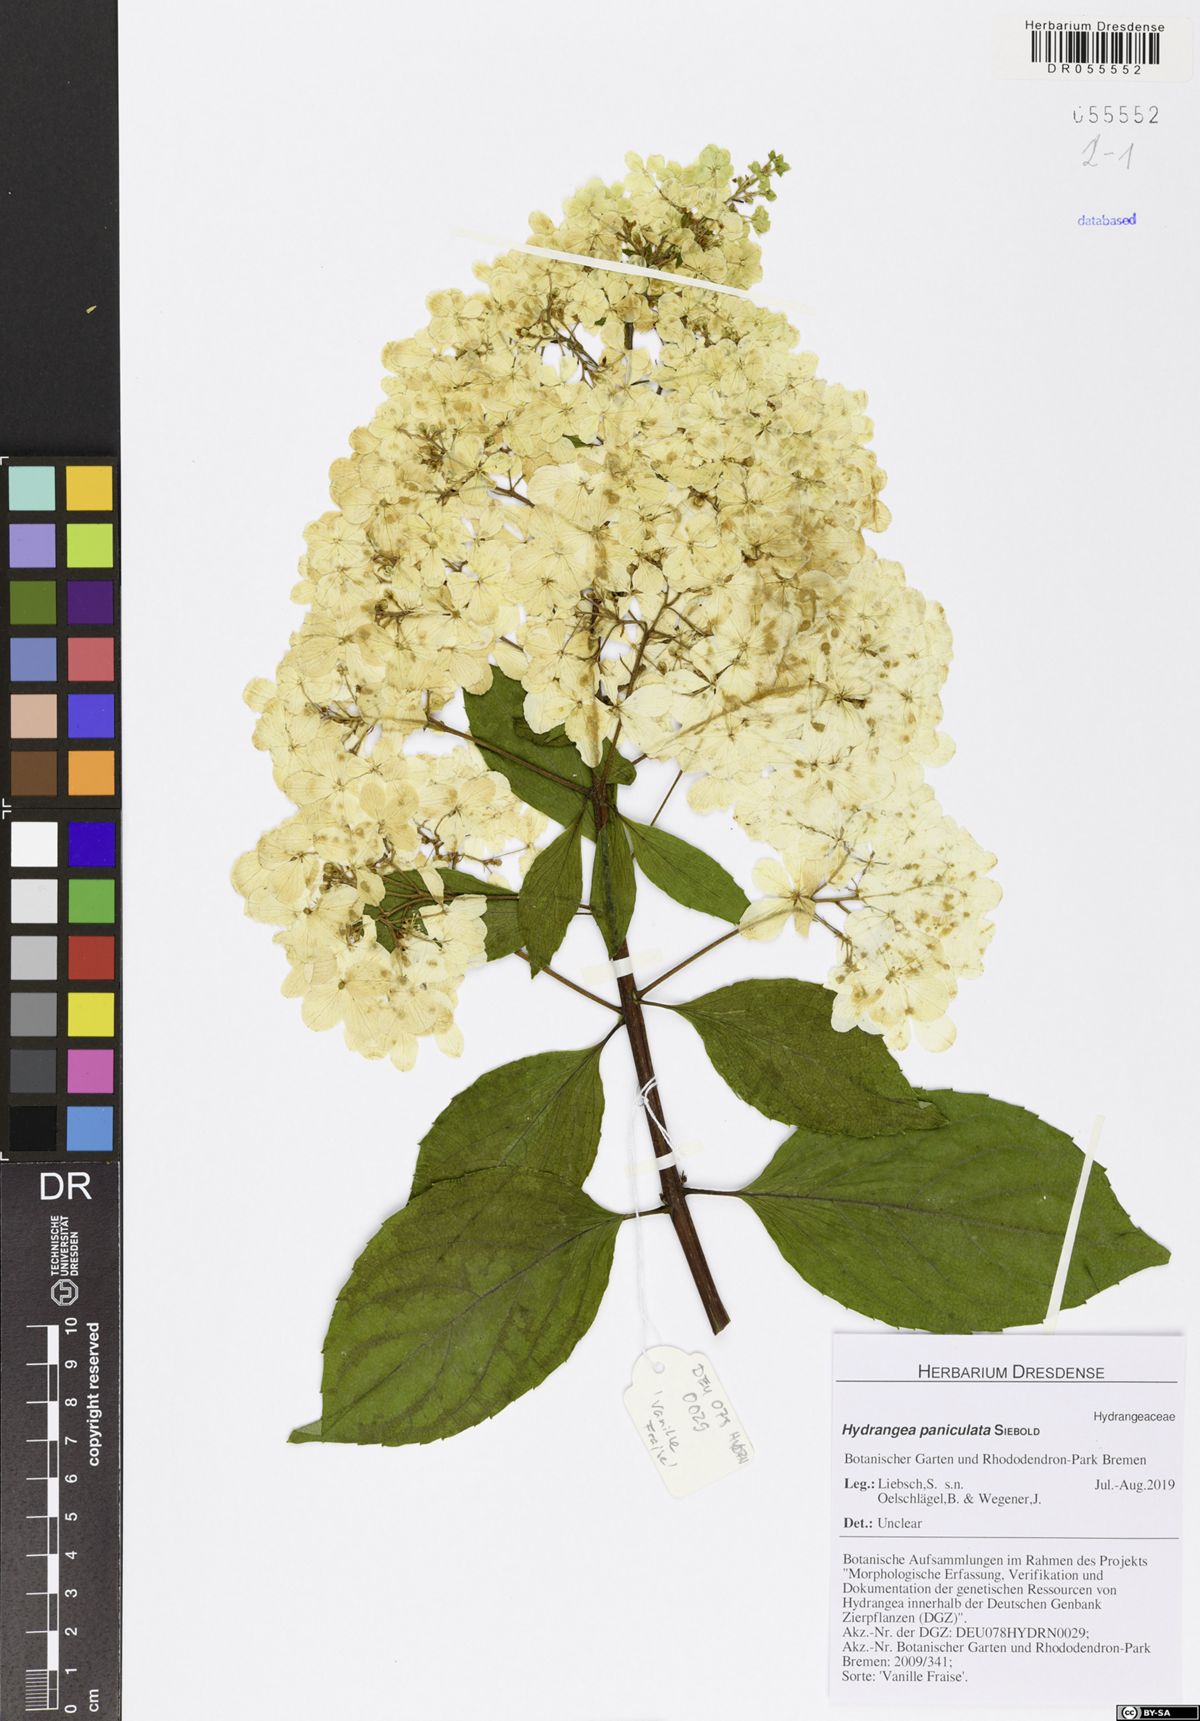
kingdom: Plantae
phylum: Tracheophyta
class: Magnoliopsida
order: Cornales
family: Hydrangeaceae
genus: Hydrangea
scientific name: Hydrangea paniculata
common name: Panicled hydrangea
